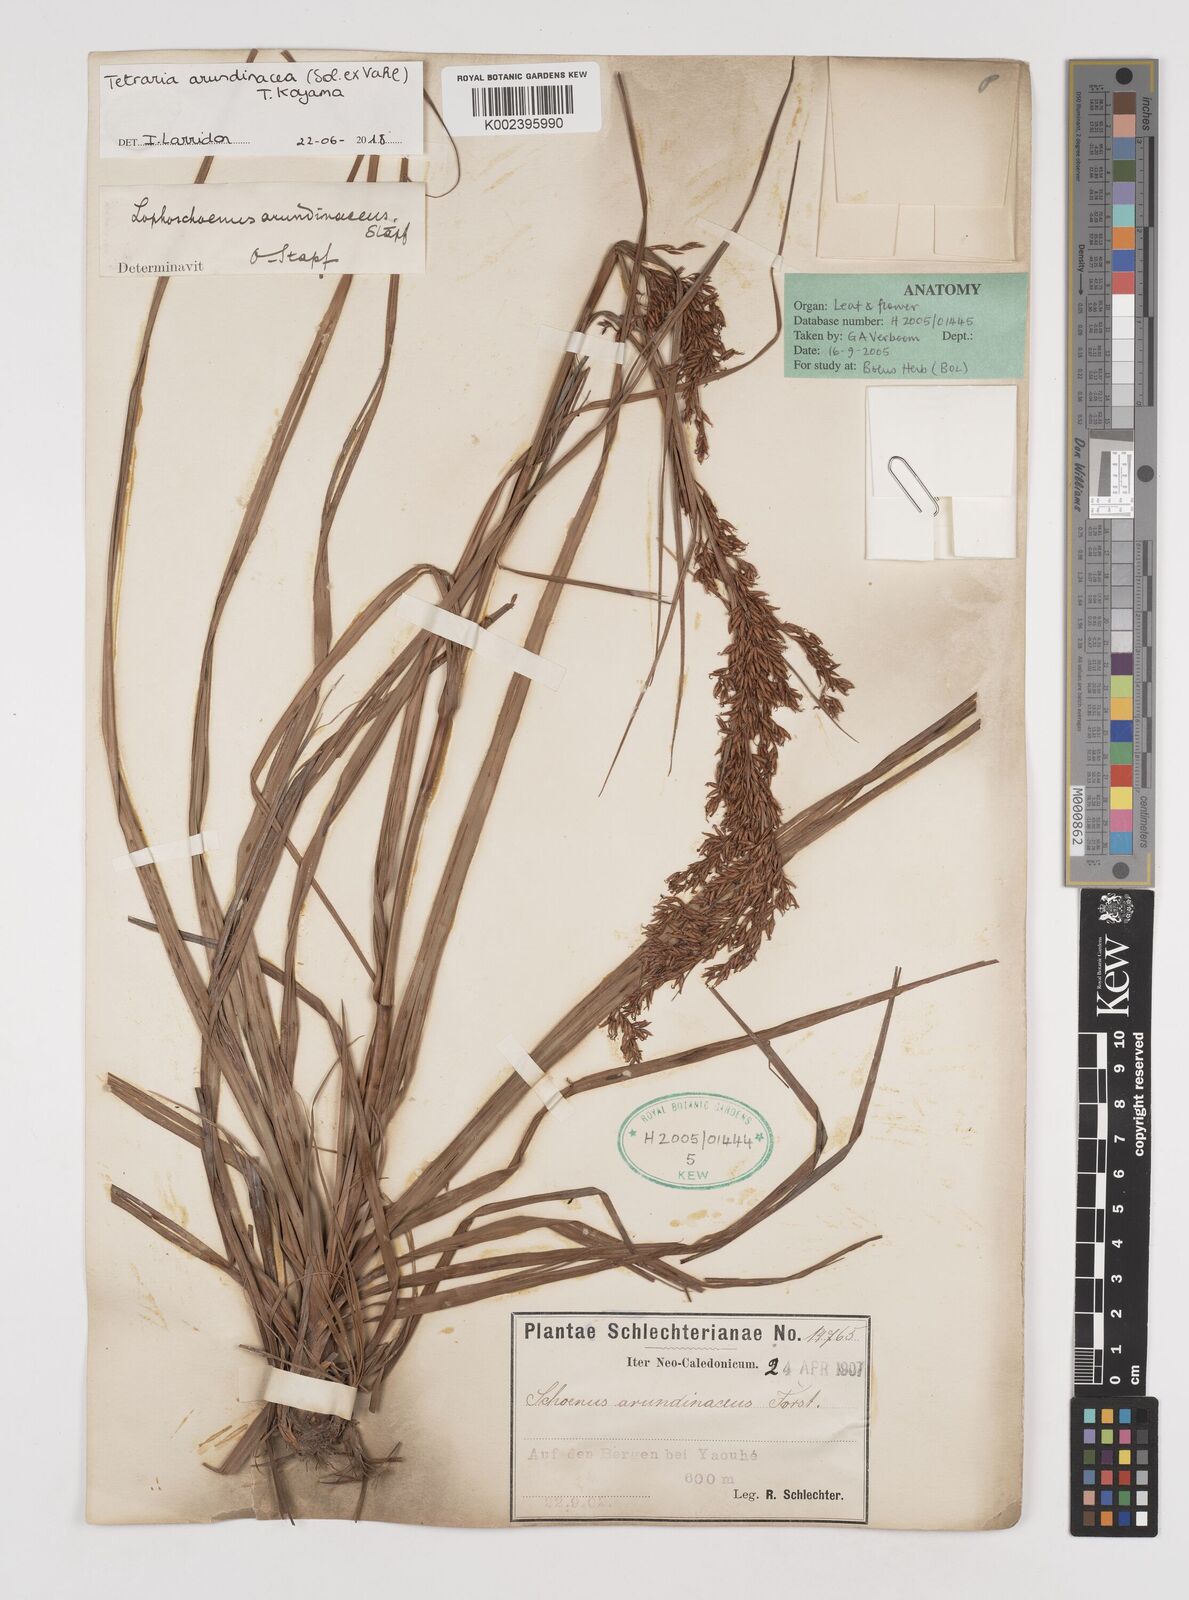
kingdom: Plantae
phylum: Tracheophyta
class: Liliopsida
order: Poales
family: Cyperaceae
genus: Tetraria
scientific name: Tetraria arundinacea
